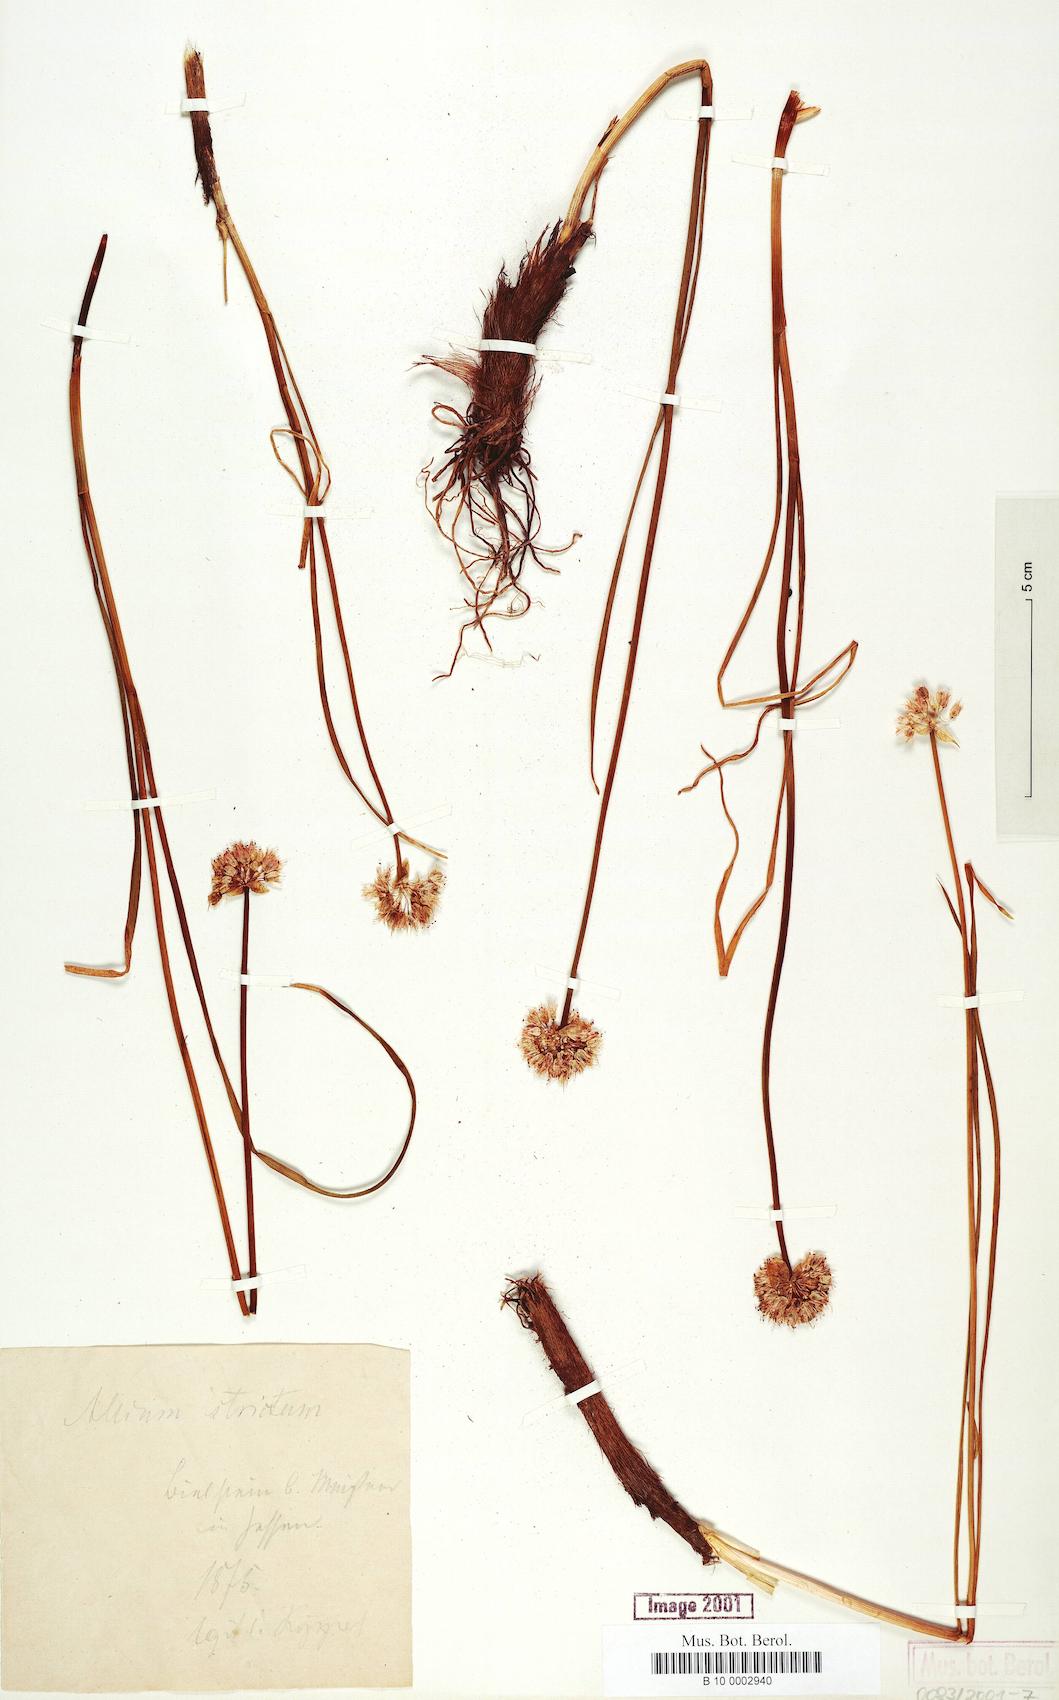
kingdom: Plantae
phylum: Tracheophyta
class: Liliopsida
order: Asparagales
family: Amaryllidaceae
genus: Allium
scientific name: Allium strictum
